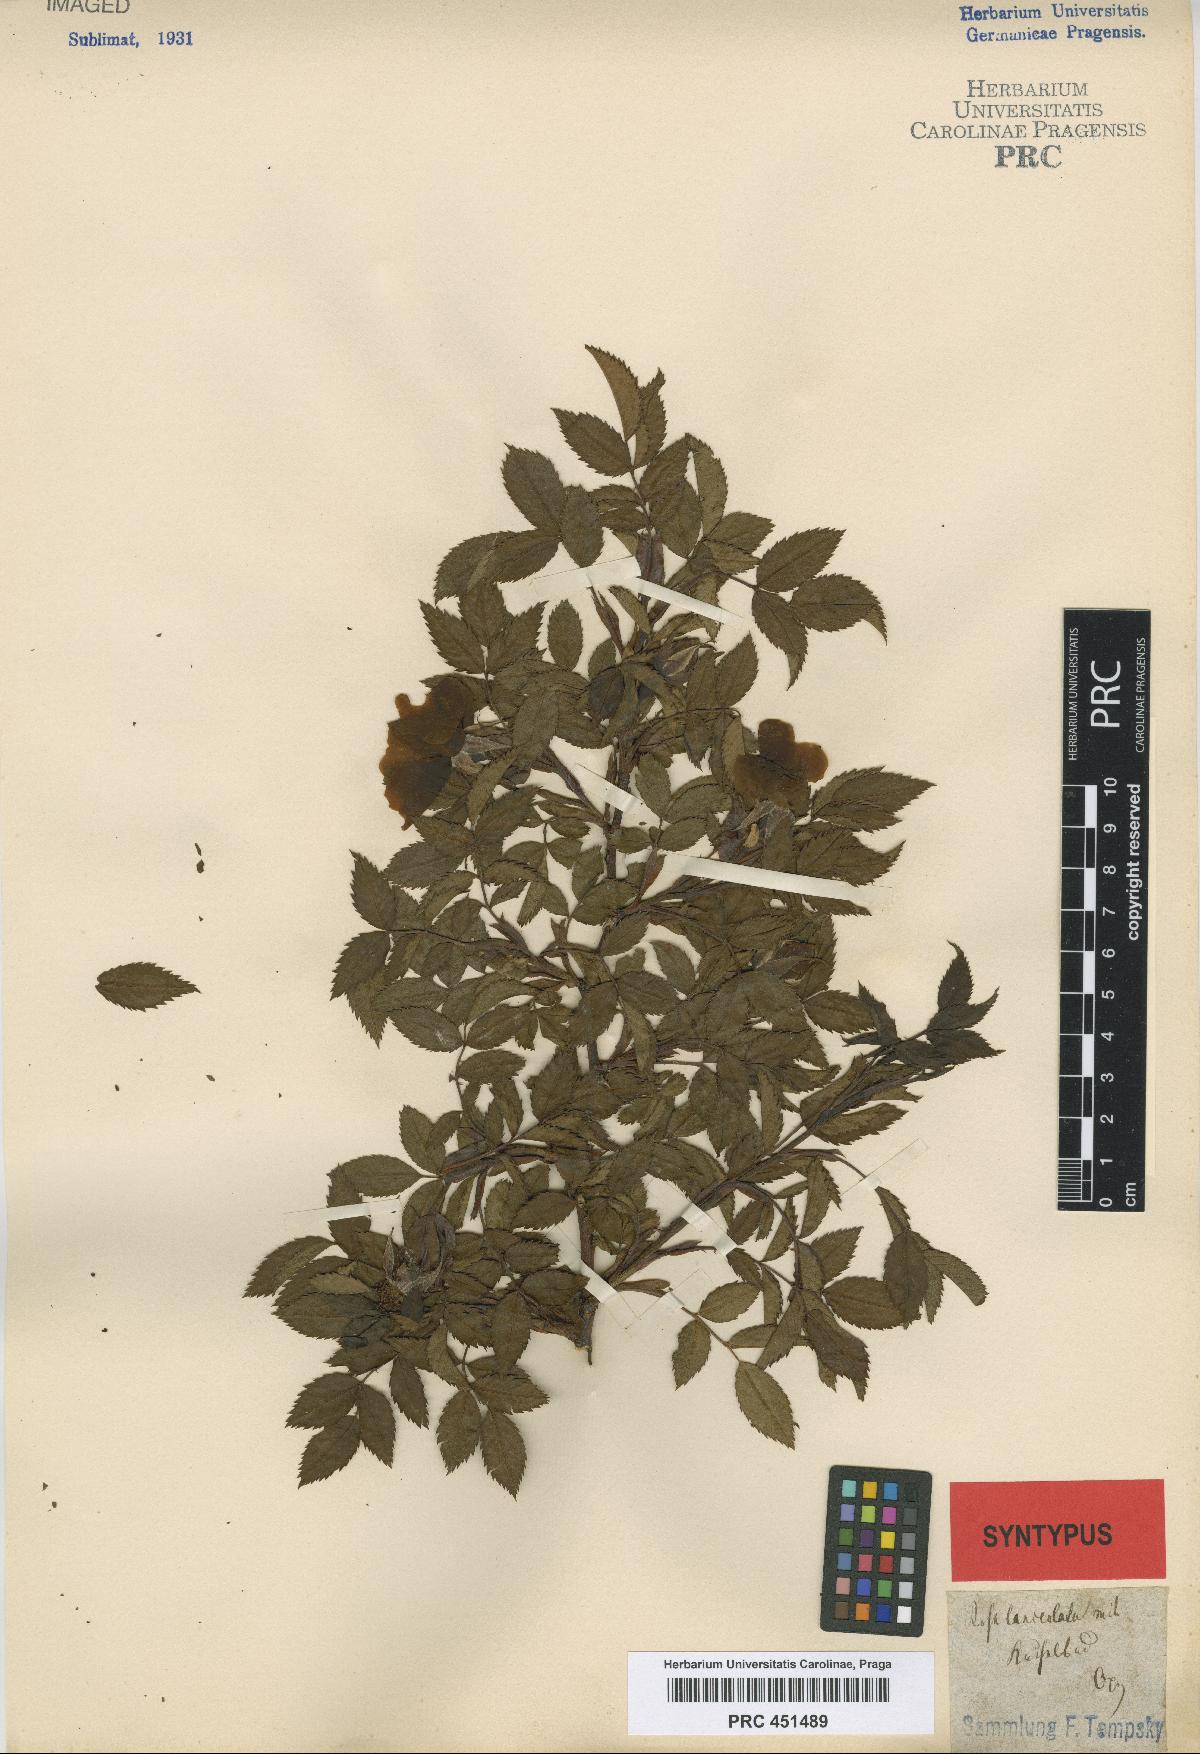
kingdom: Plantae
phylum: Tracheophyta
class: Magnoliopsida
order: Rosales
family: Rosaceae
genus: Rosa
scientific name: Rosa corymbifera
